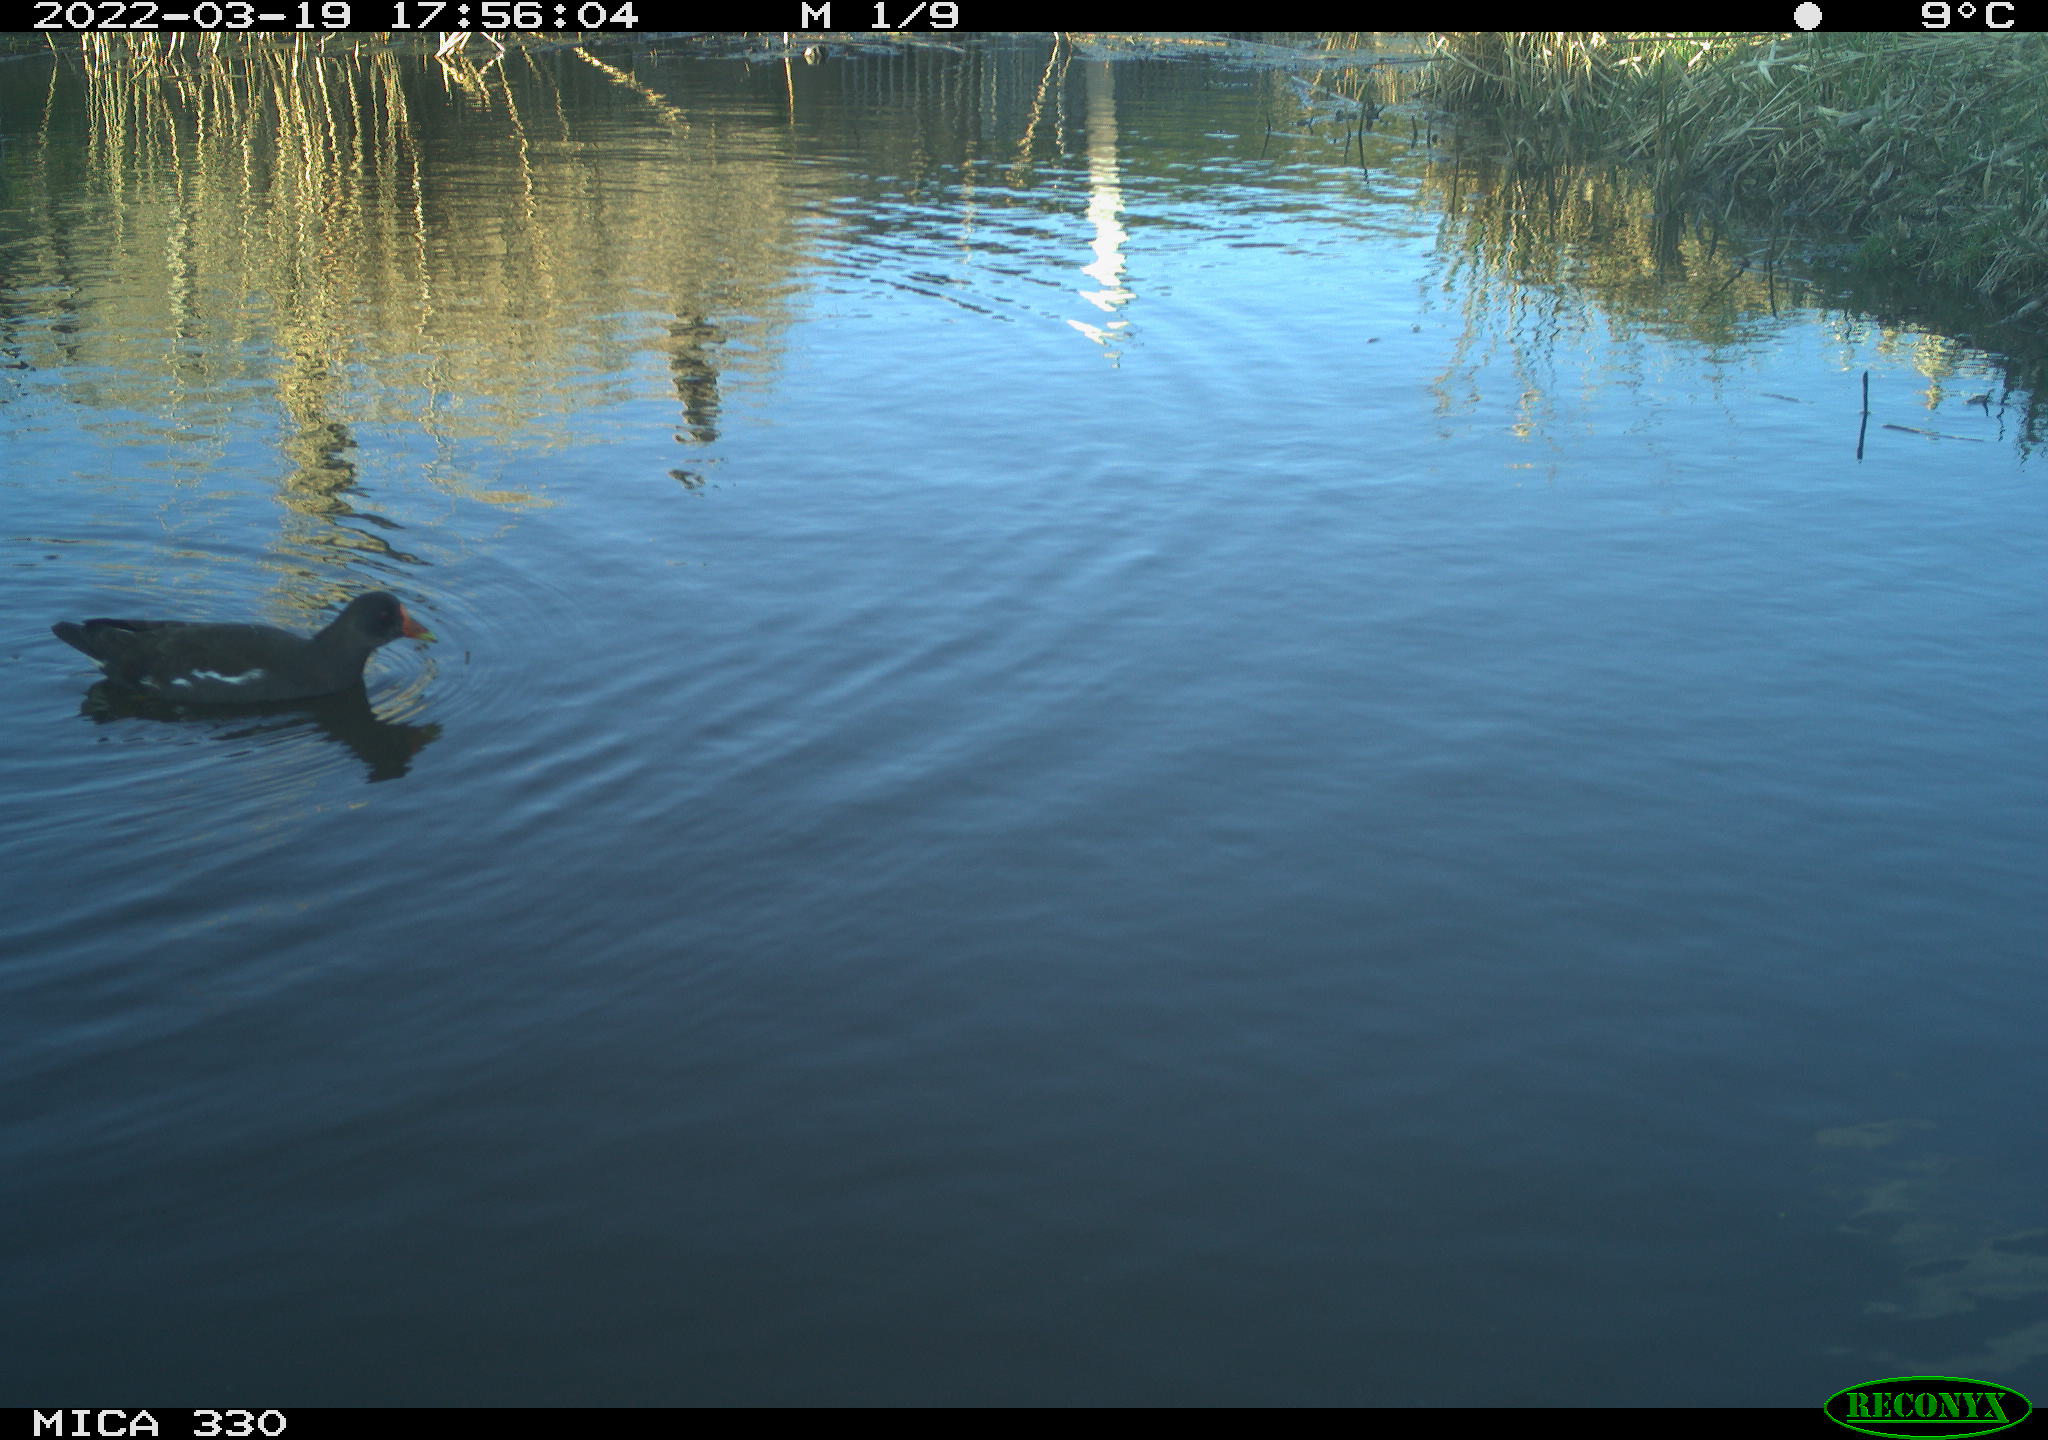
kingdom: Animalia
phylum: Chordata
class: Aves
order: Gruiformes
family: Rallidae
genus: Gallinula
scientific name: Gallinula chloropus
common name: Common moorhen
